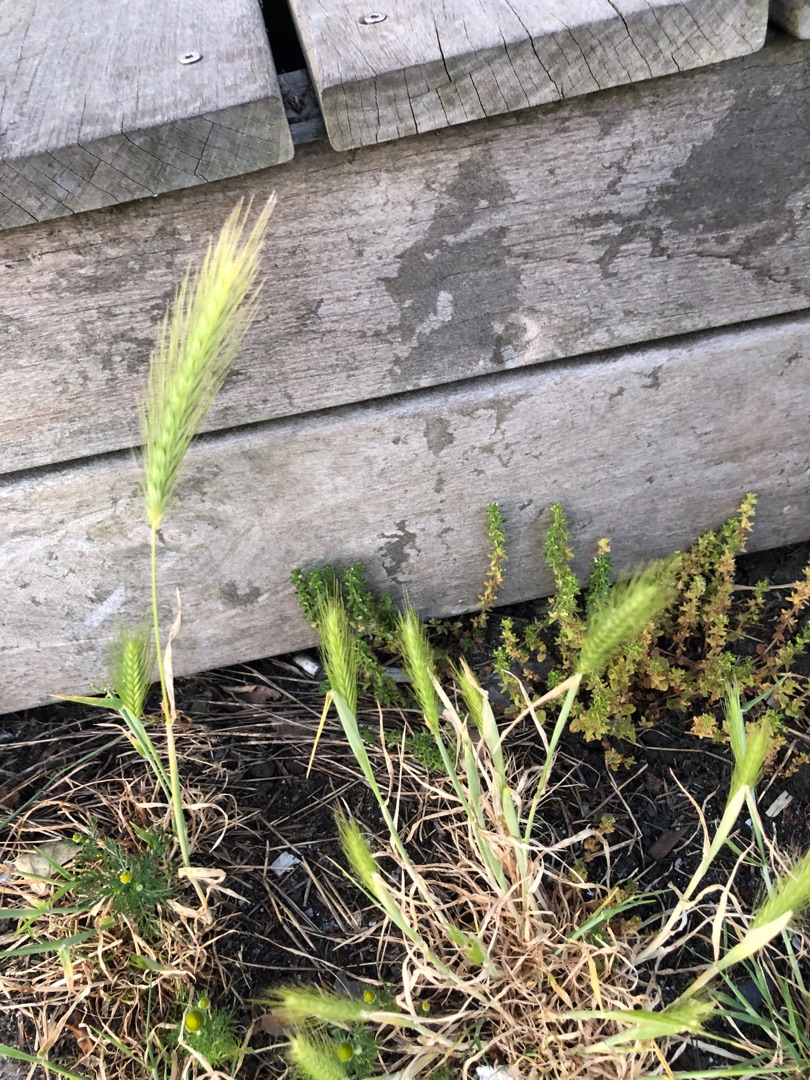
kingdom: Plantae
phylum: Tracheophyta
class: Liliopsida
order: Poales
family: Poaceae
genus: Hordeum
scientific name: Hordeum murinum
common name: Gold byg
